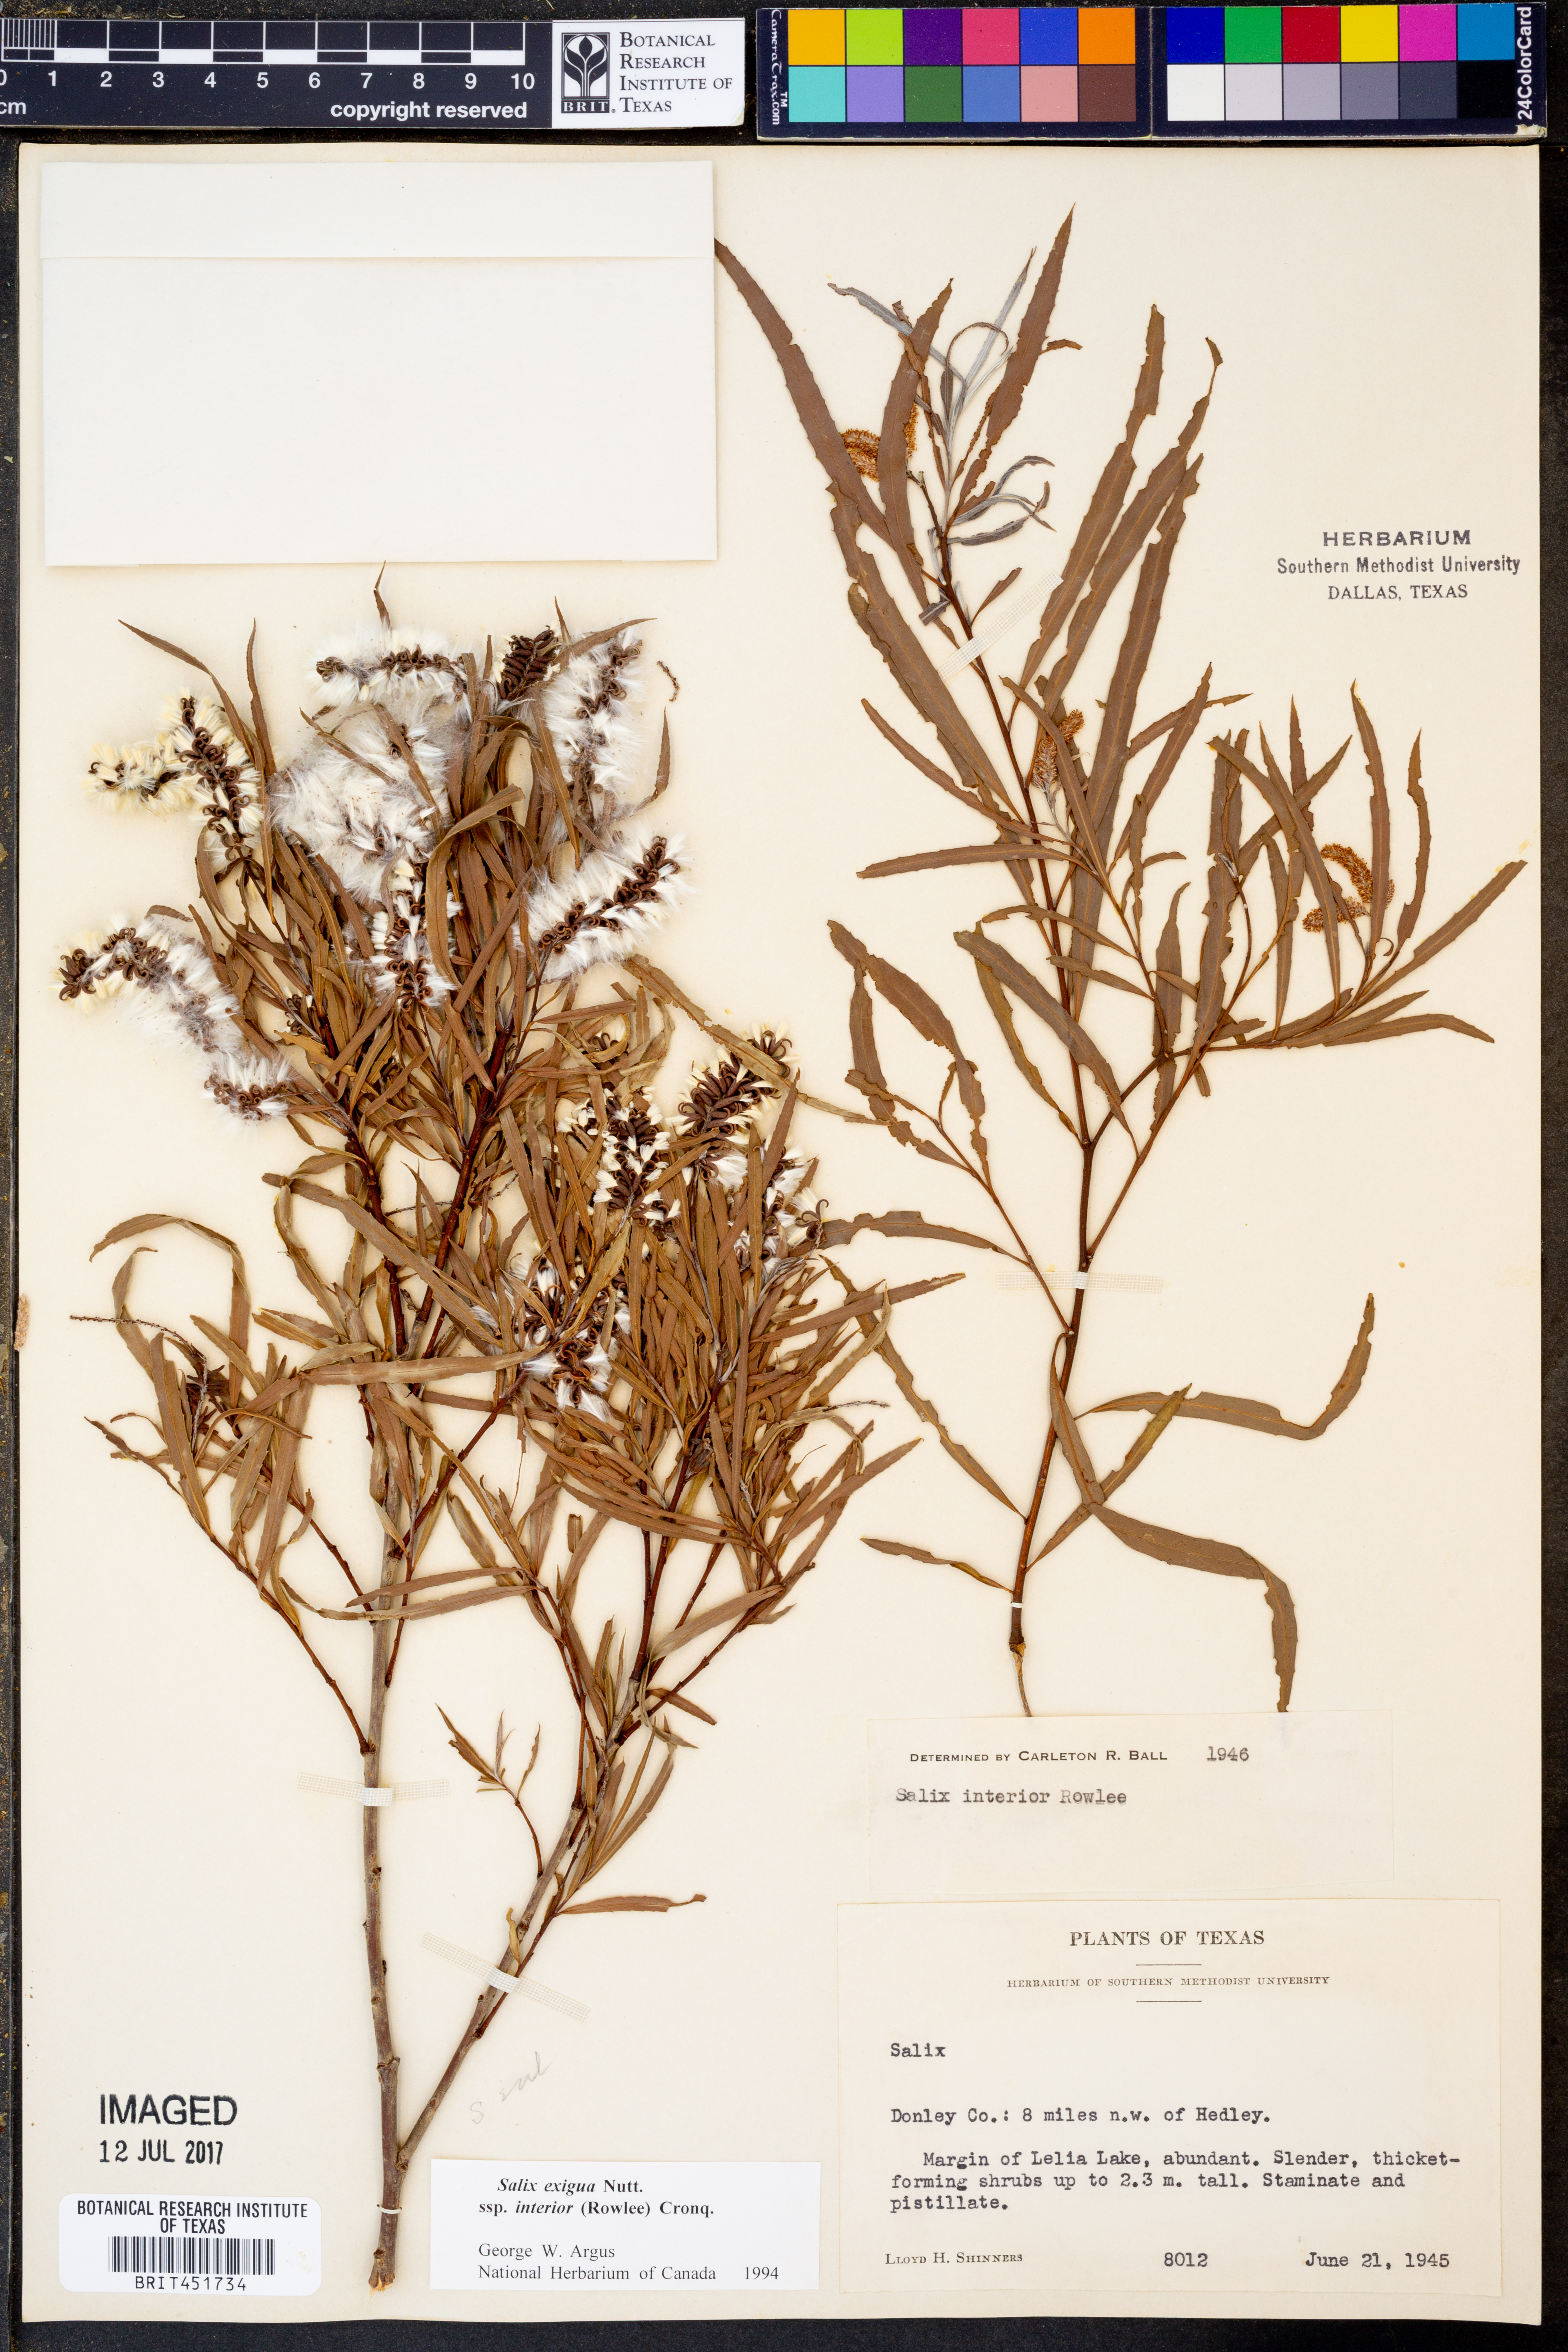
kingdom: Plantae
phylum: Tracheophyta
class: Magnoliopsida
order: Malpighiales
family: Salicaceae
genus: Salix
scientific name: Salix interior
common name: Sandbar willow
